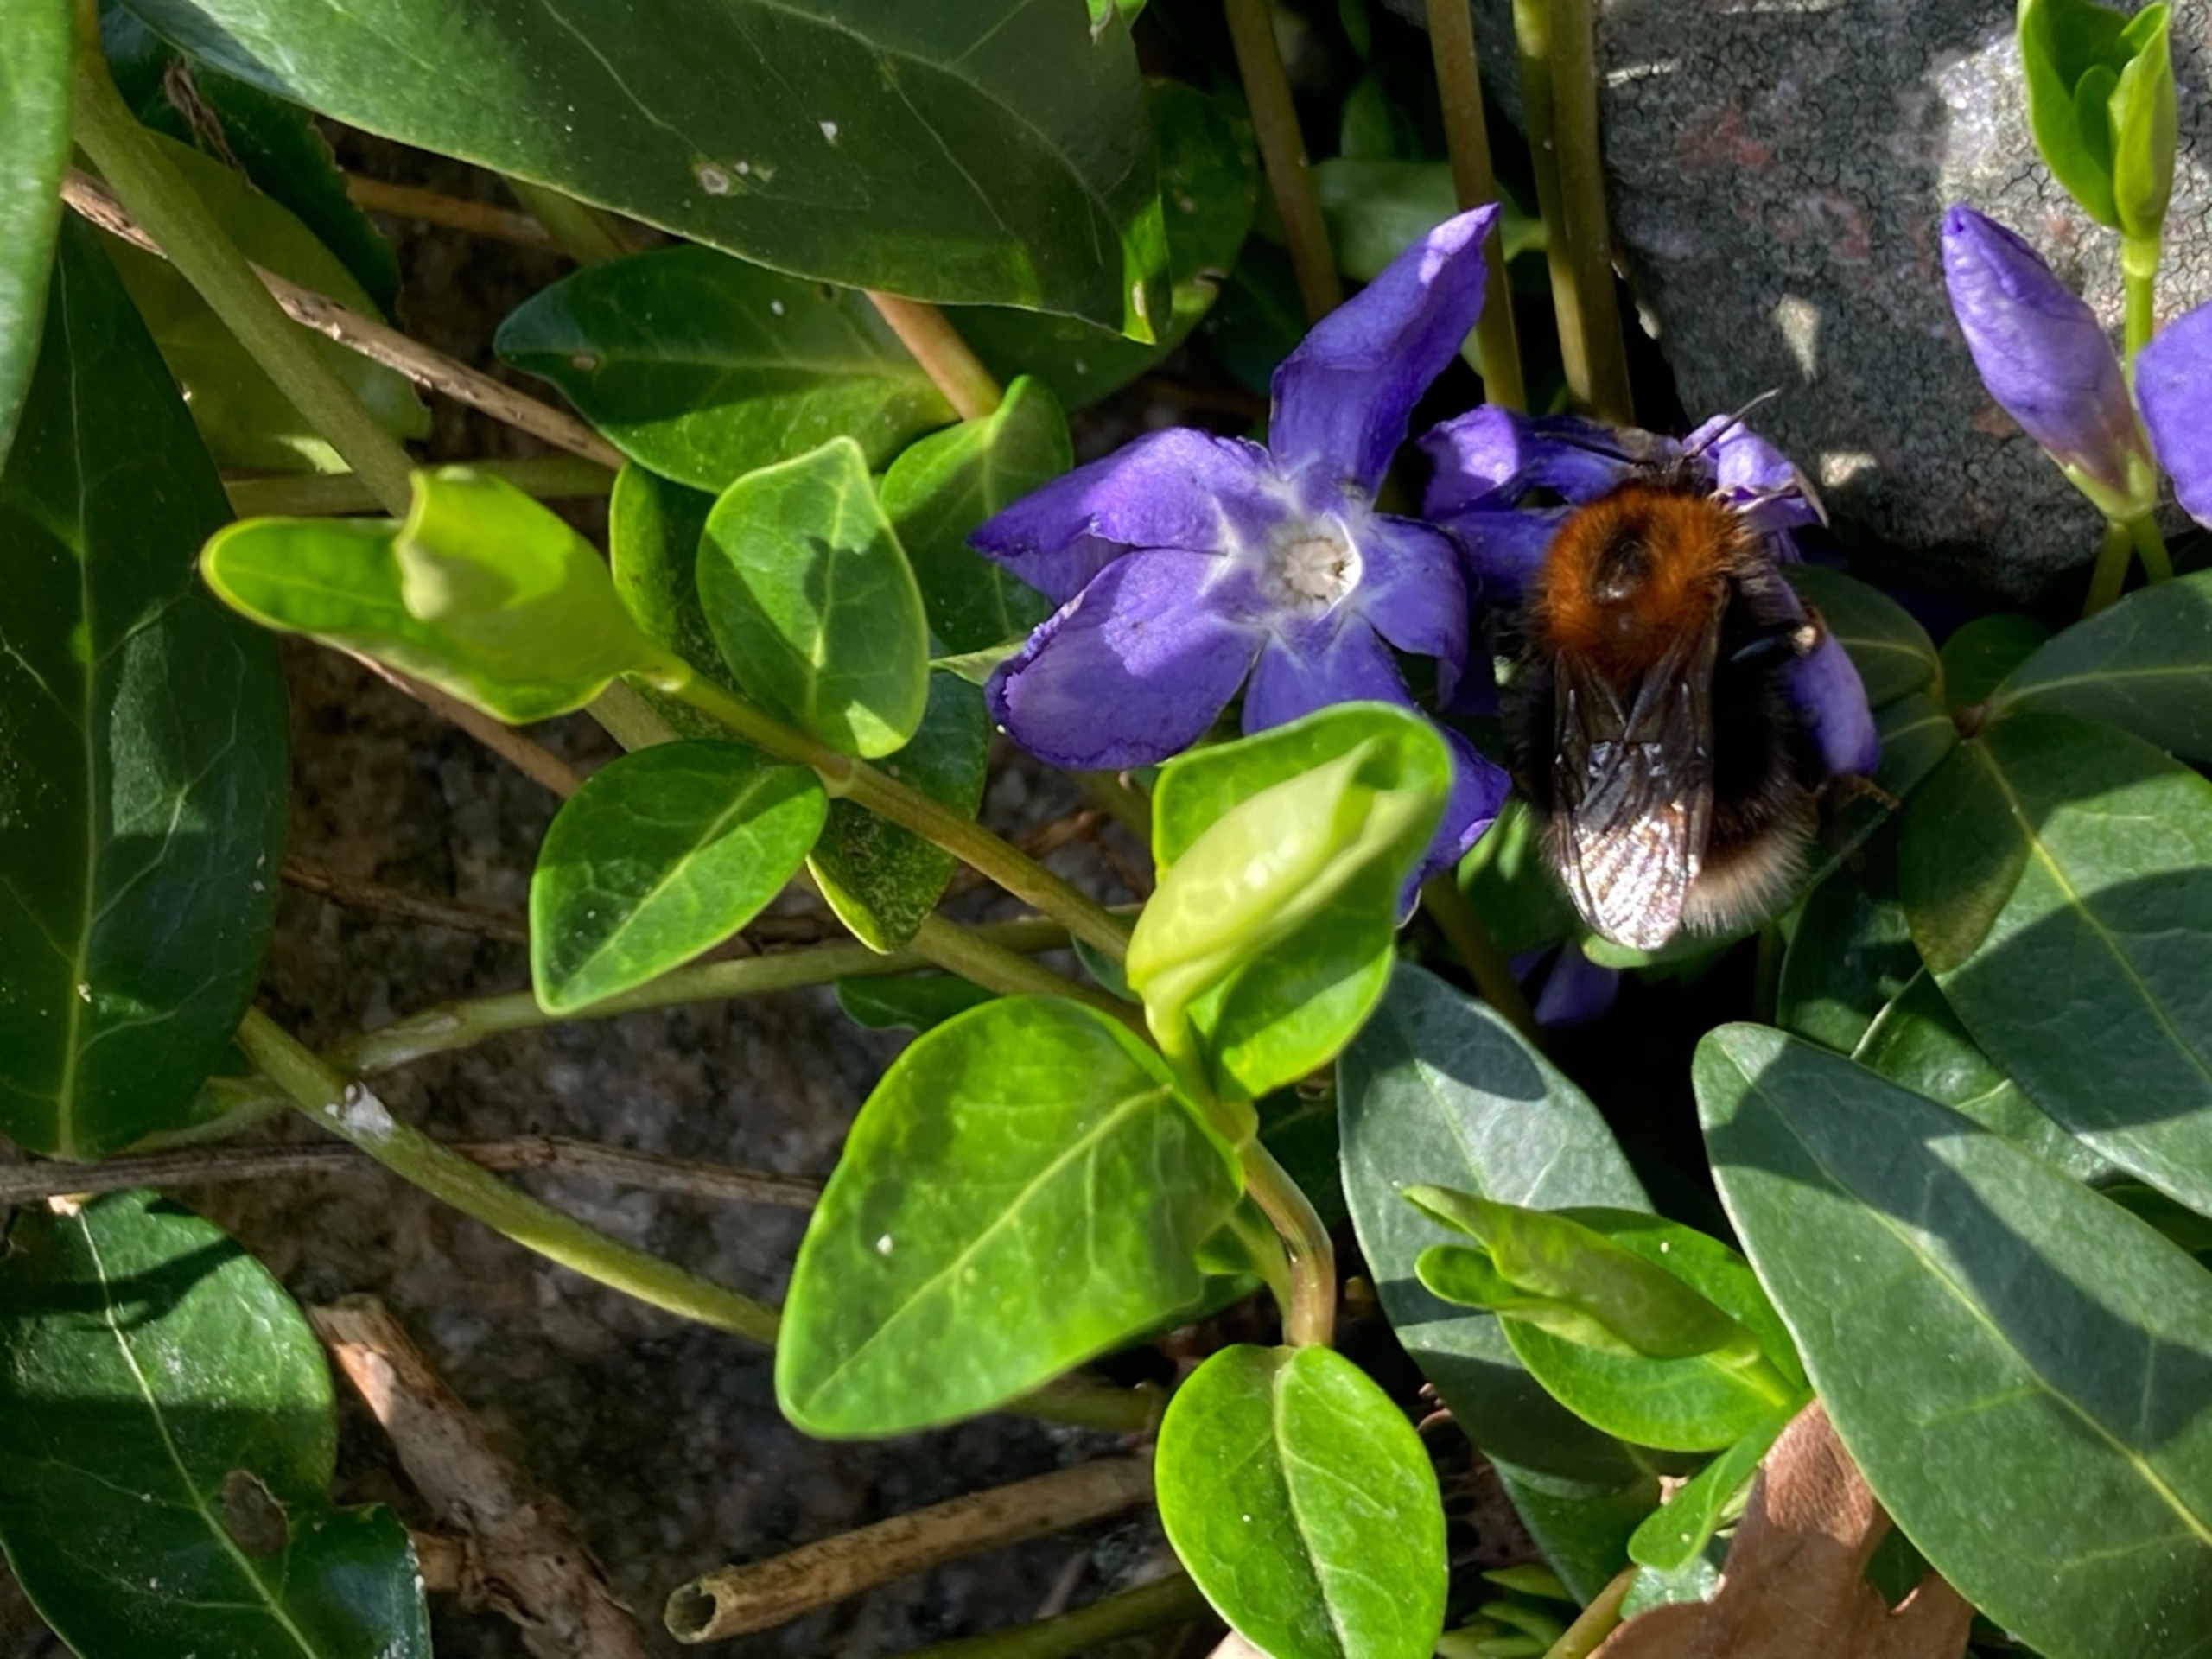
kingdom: Animalia
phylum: Arthropoda
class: Insecta
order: Hymenoptera
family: Apidae
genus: Bombus
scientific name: Bombus hypnorum
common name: Hushumle
